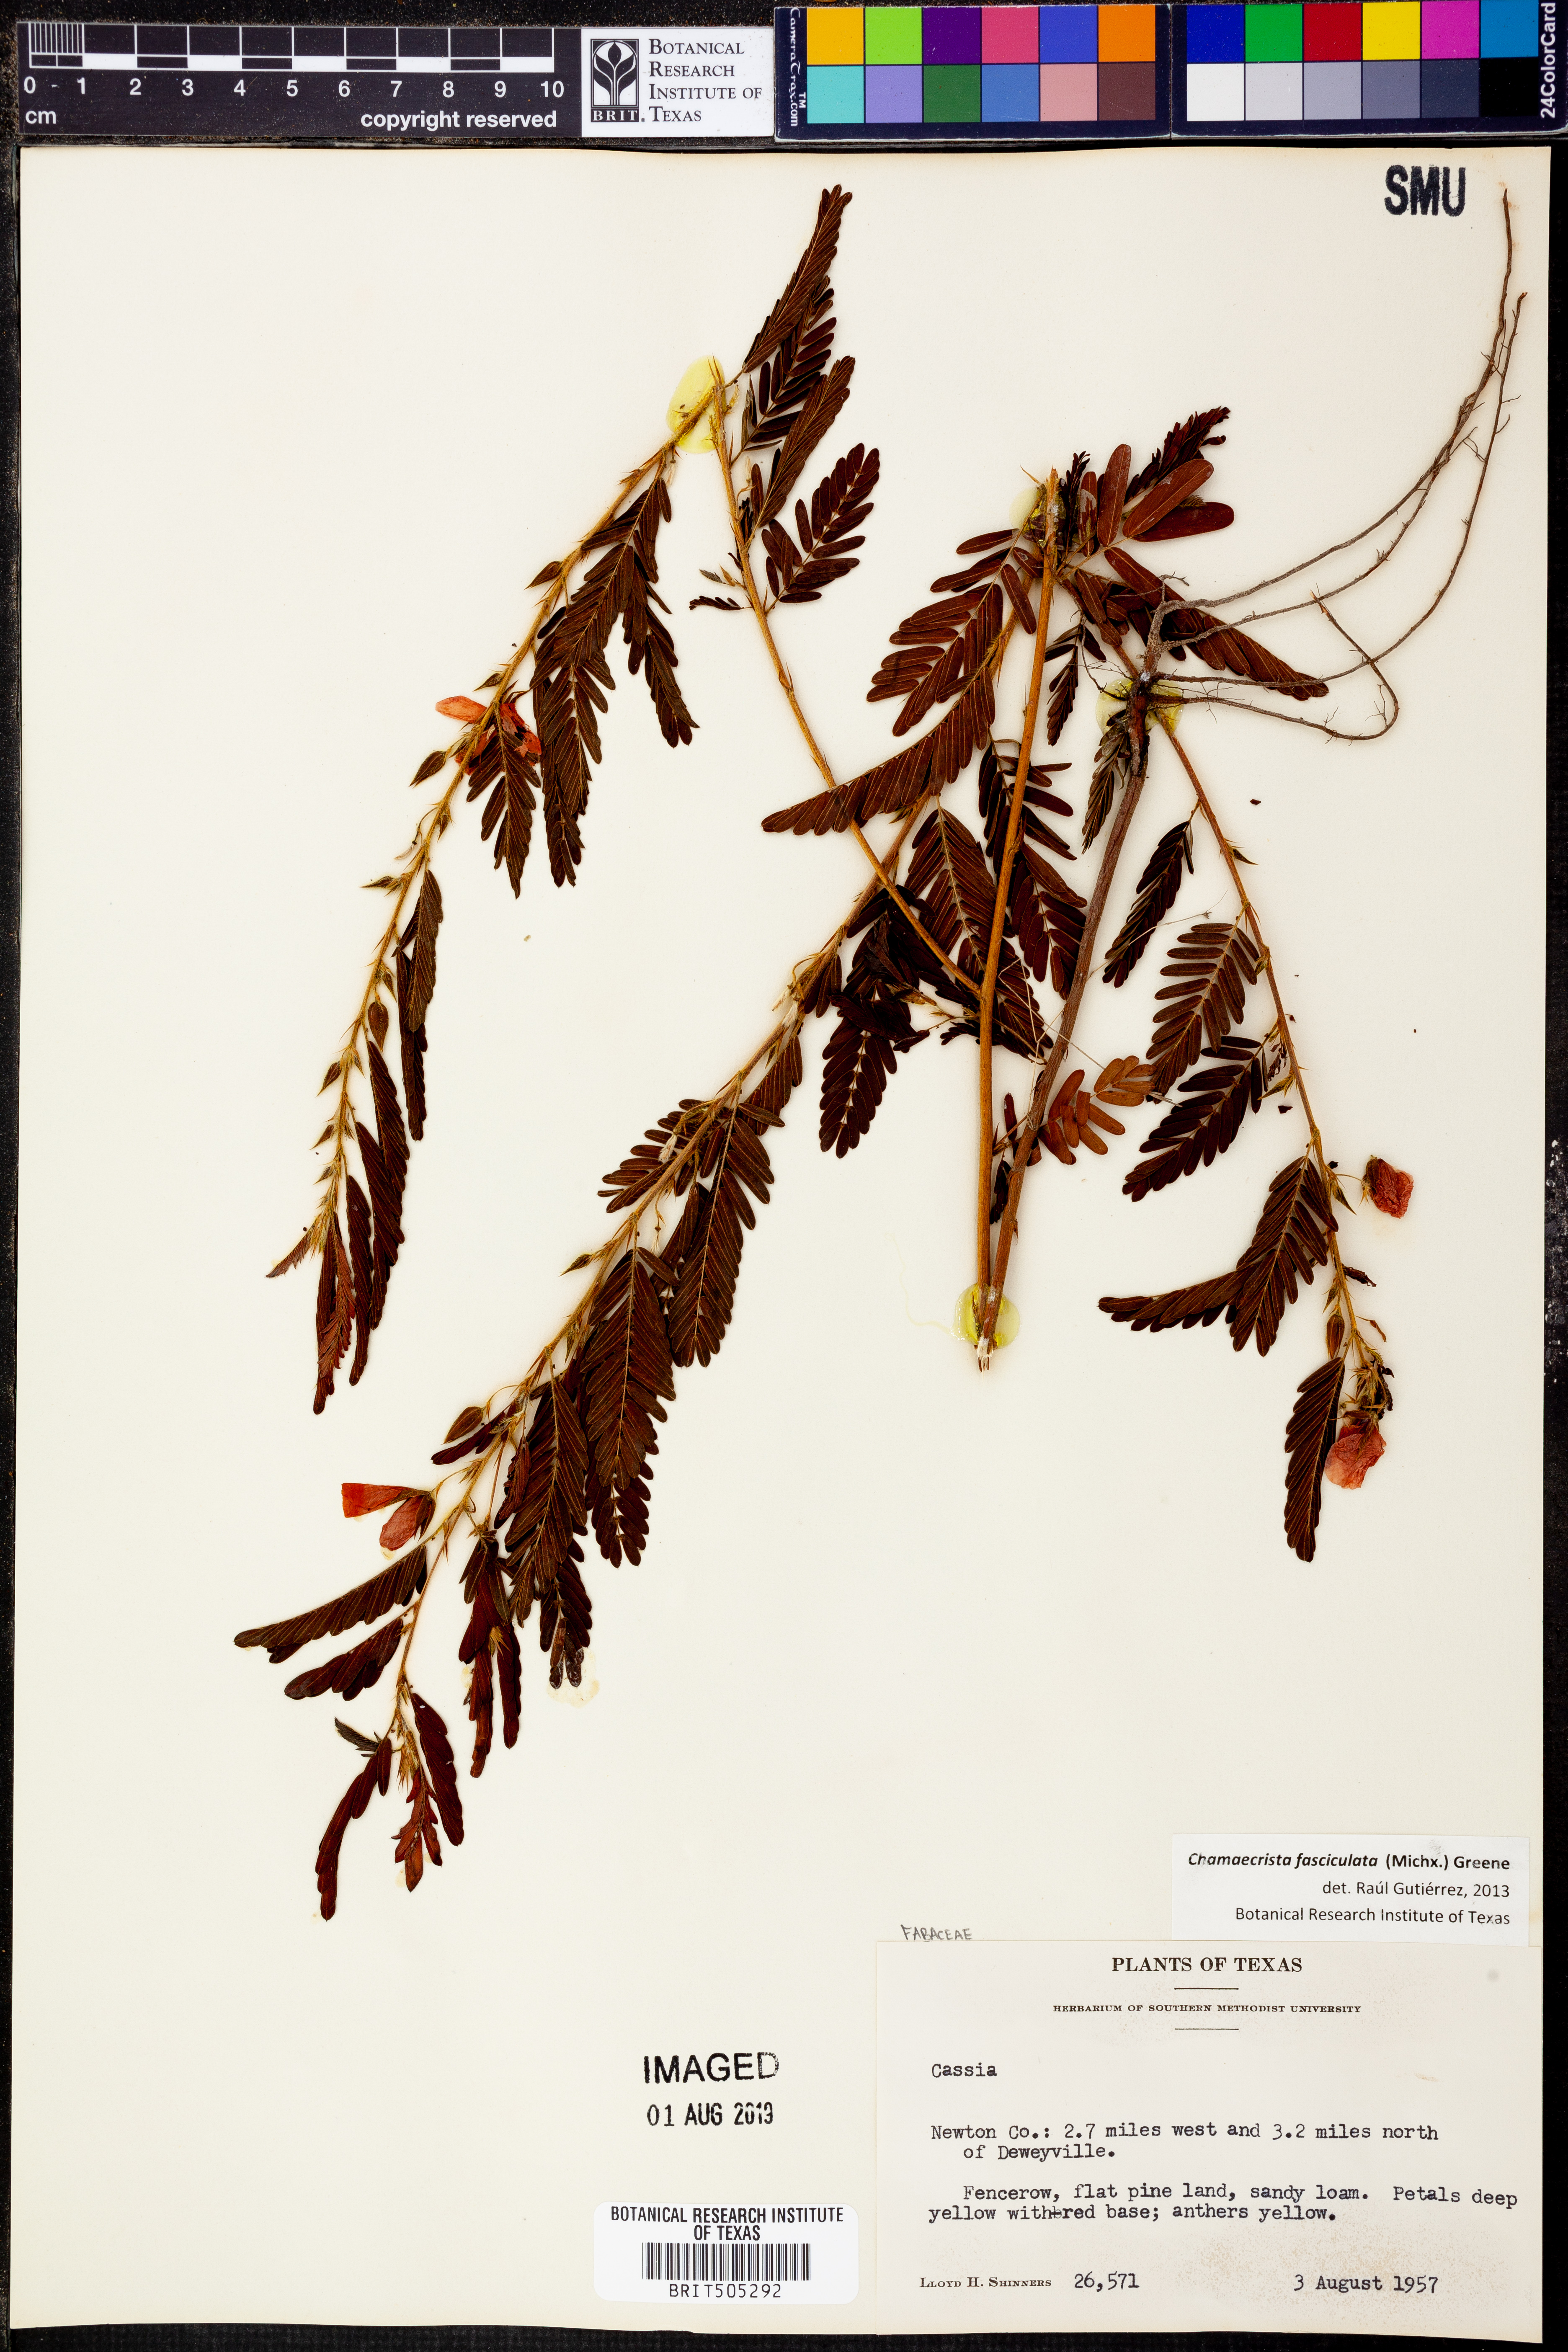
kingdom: Plantae
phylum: Tracheophyta
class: Magnoliopsida
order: Fabales
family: Fabaceae
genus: Chamaecrista
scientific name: Chamaecrista fasciculata
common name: Golden cassia
